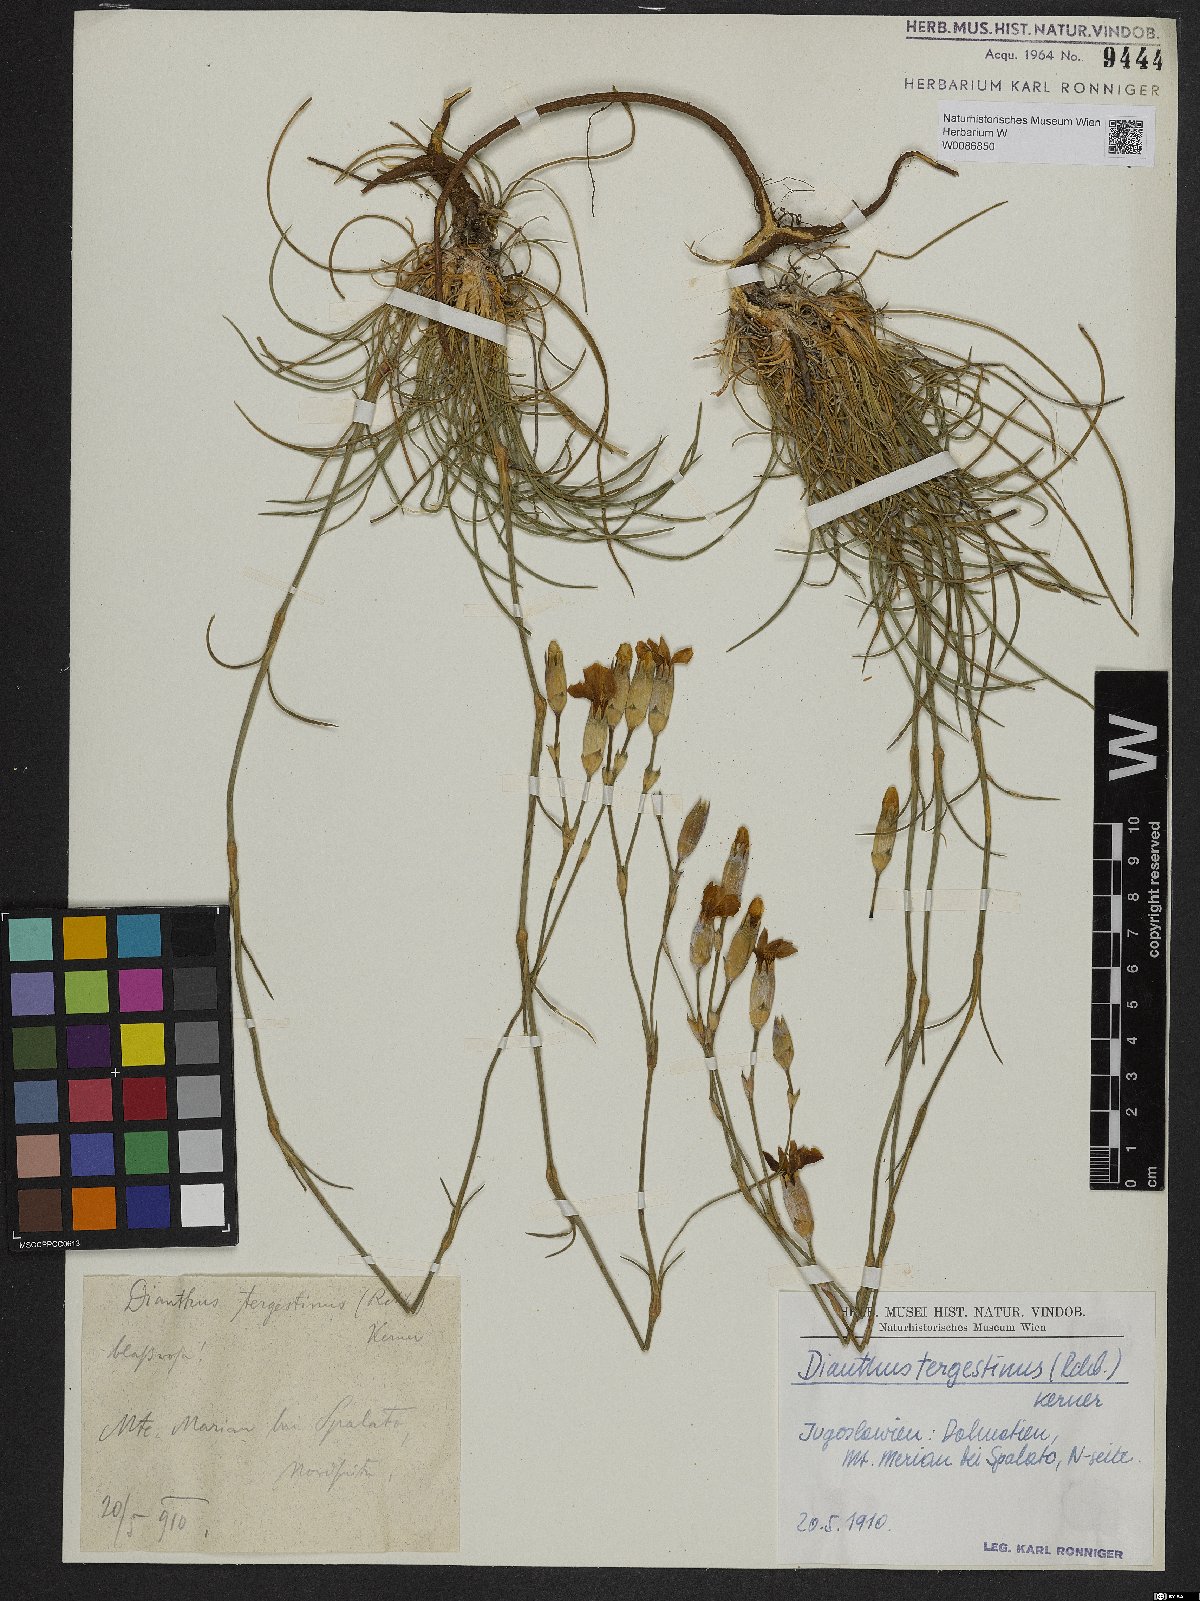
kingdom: Plantae
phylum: Tracheophyta
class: Magnoliopsida
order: Caryophyllales
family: Caryophyllaceae
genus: Dianthus
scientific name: Dianthus sylvestris
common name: Wood pink
